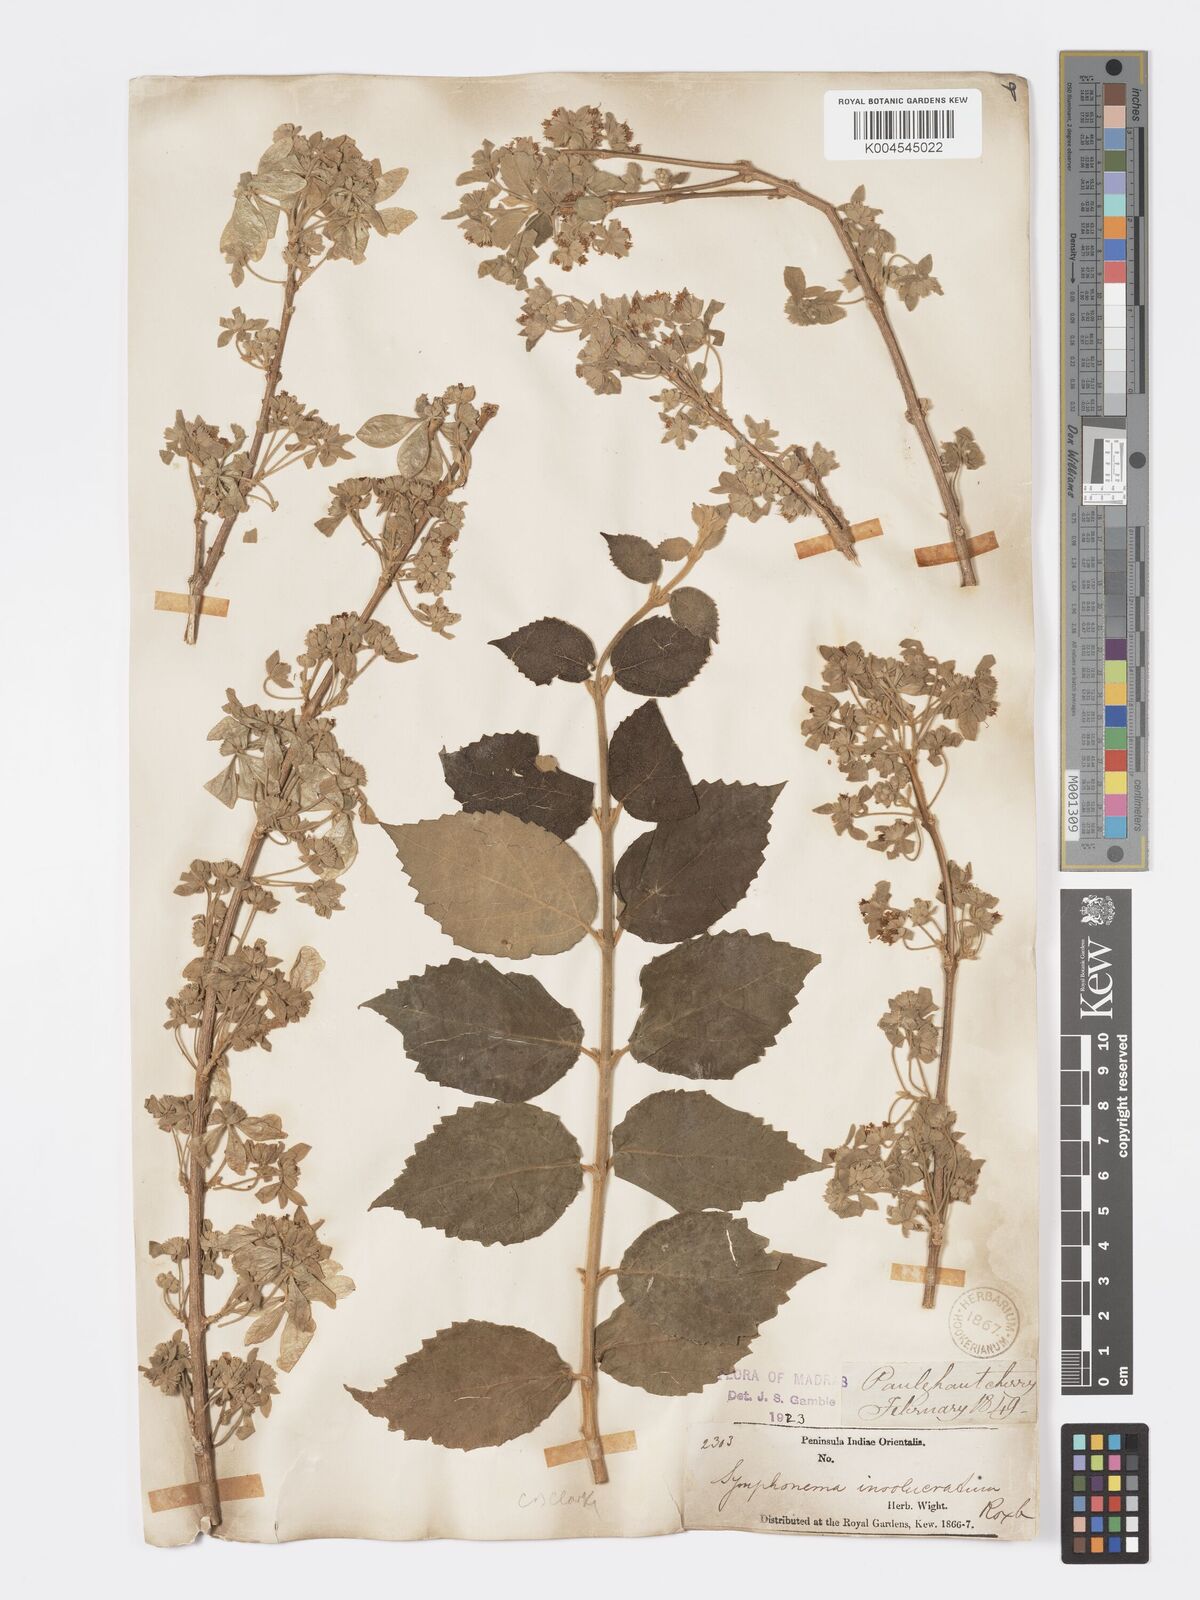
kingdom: Plantae
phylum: Tracheophyta
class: Magnoliopsida
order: Lamiales
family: Lamiaceae
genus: Symphorema
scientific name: Symphorema involucratum
